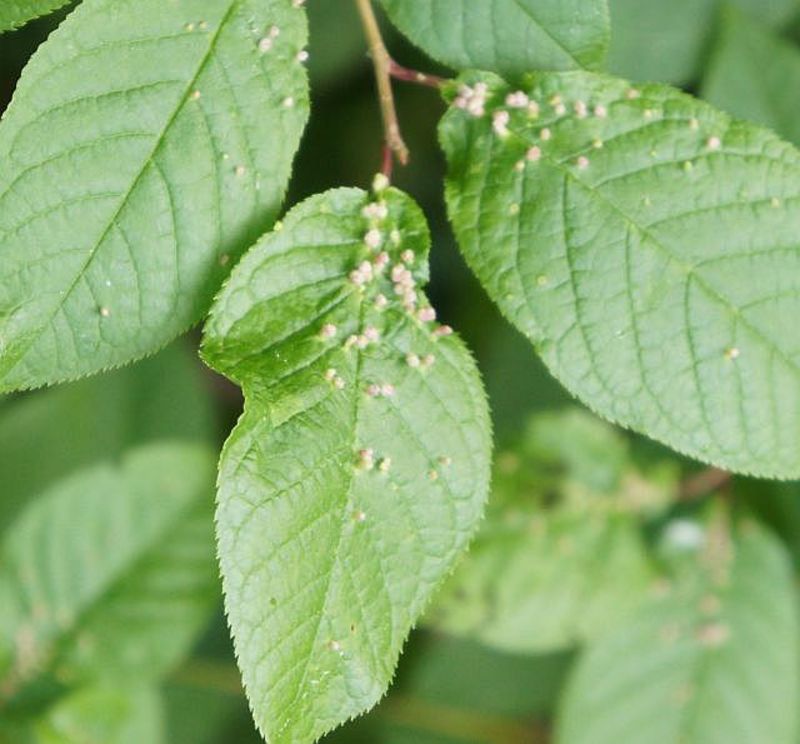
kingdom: Animalia
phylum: Arthropoda
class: Arachnida
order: Trombidiformes
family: Eriophyidae
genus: Eriophyes
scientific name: Eriophyes padi
